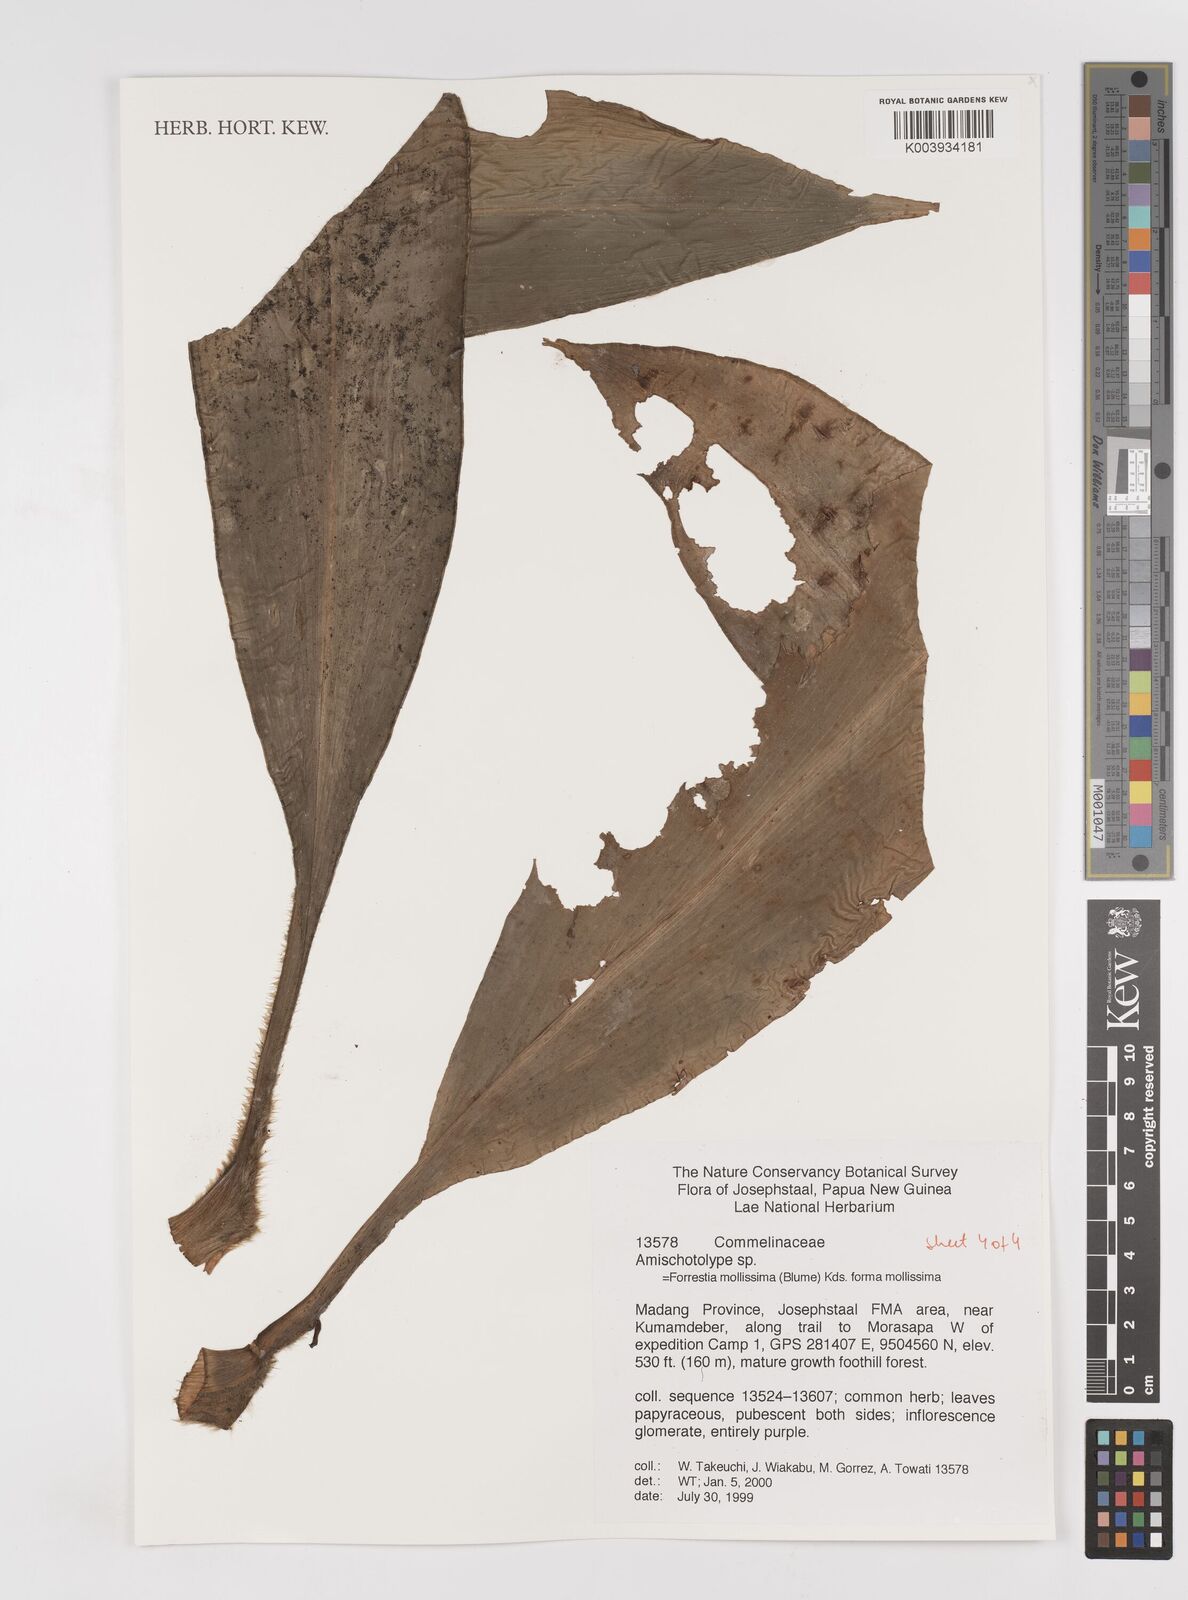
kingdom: Plantae
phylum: Tracheophyta
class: Liliopsida
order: Commelinales
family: Commelinaceae
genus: Amischotolype
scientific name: Amischotolype mollissima
